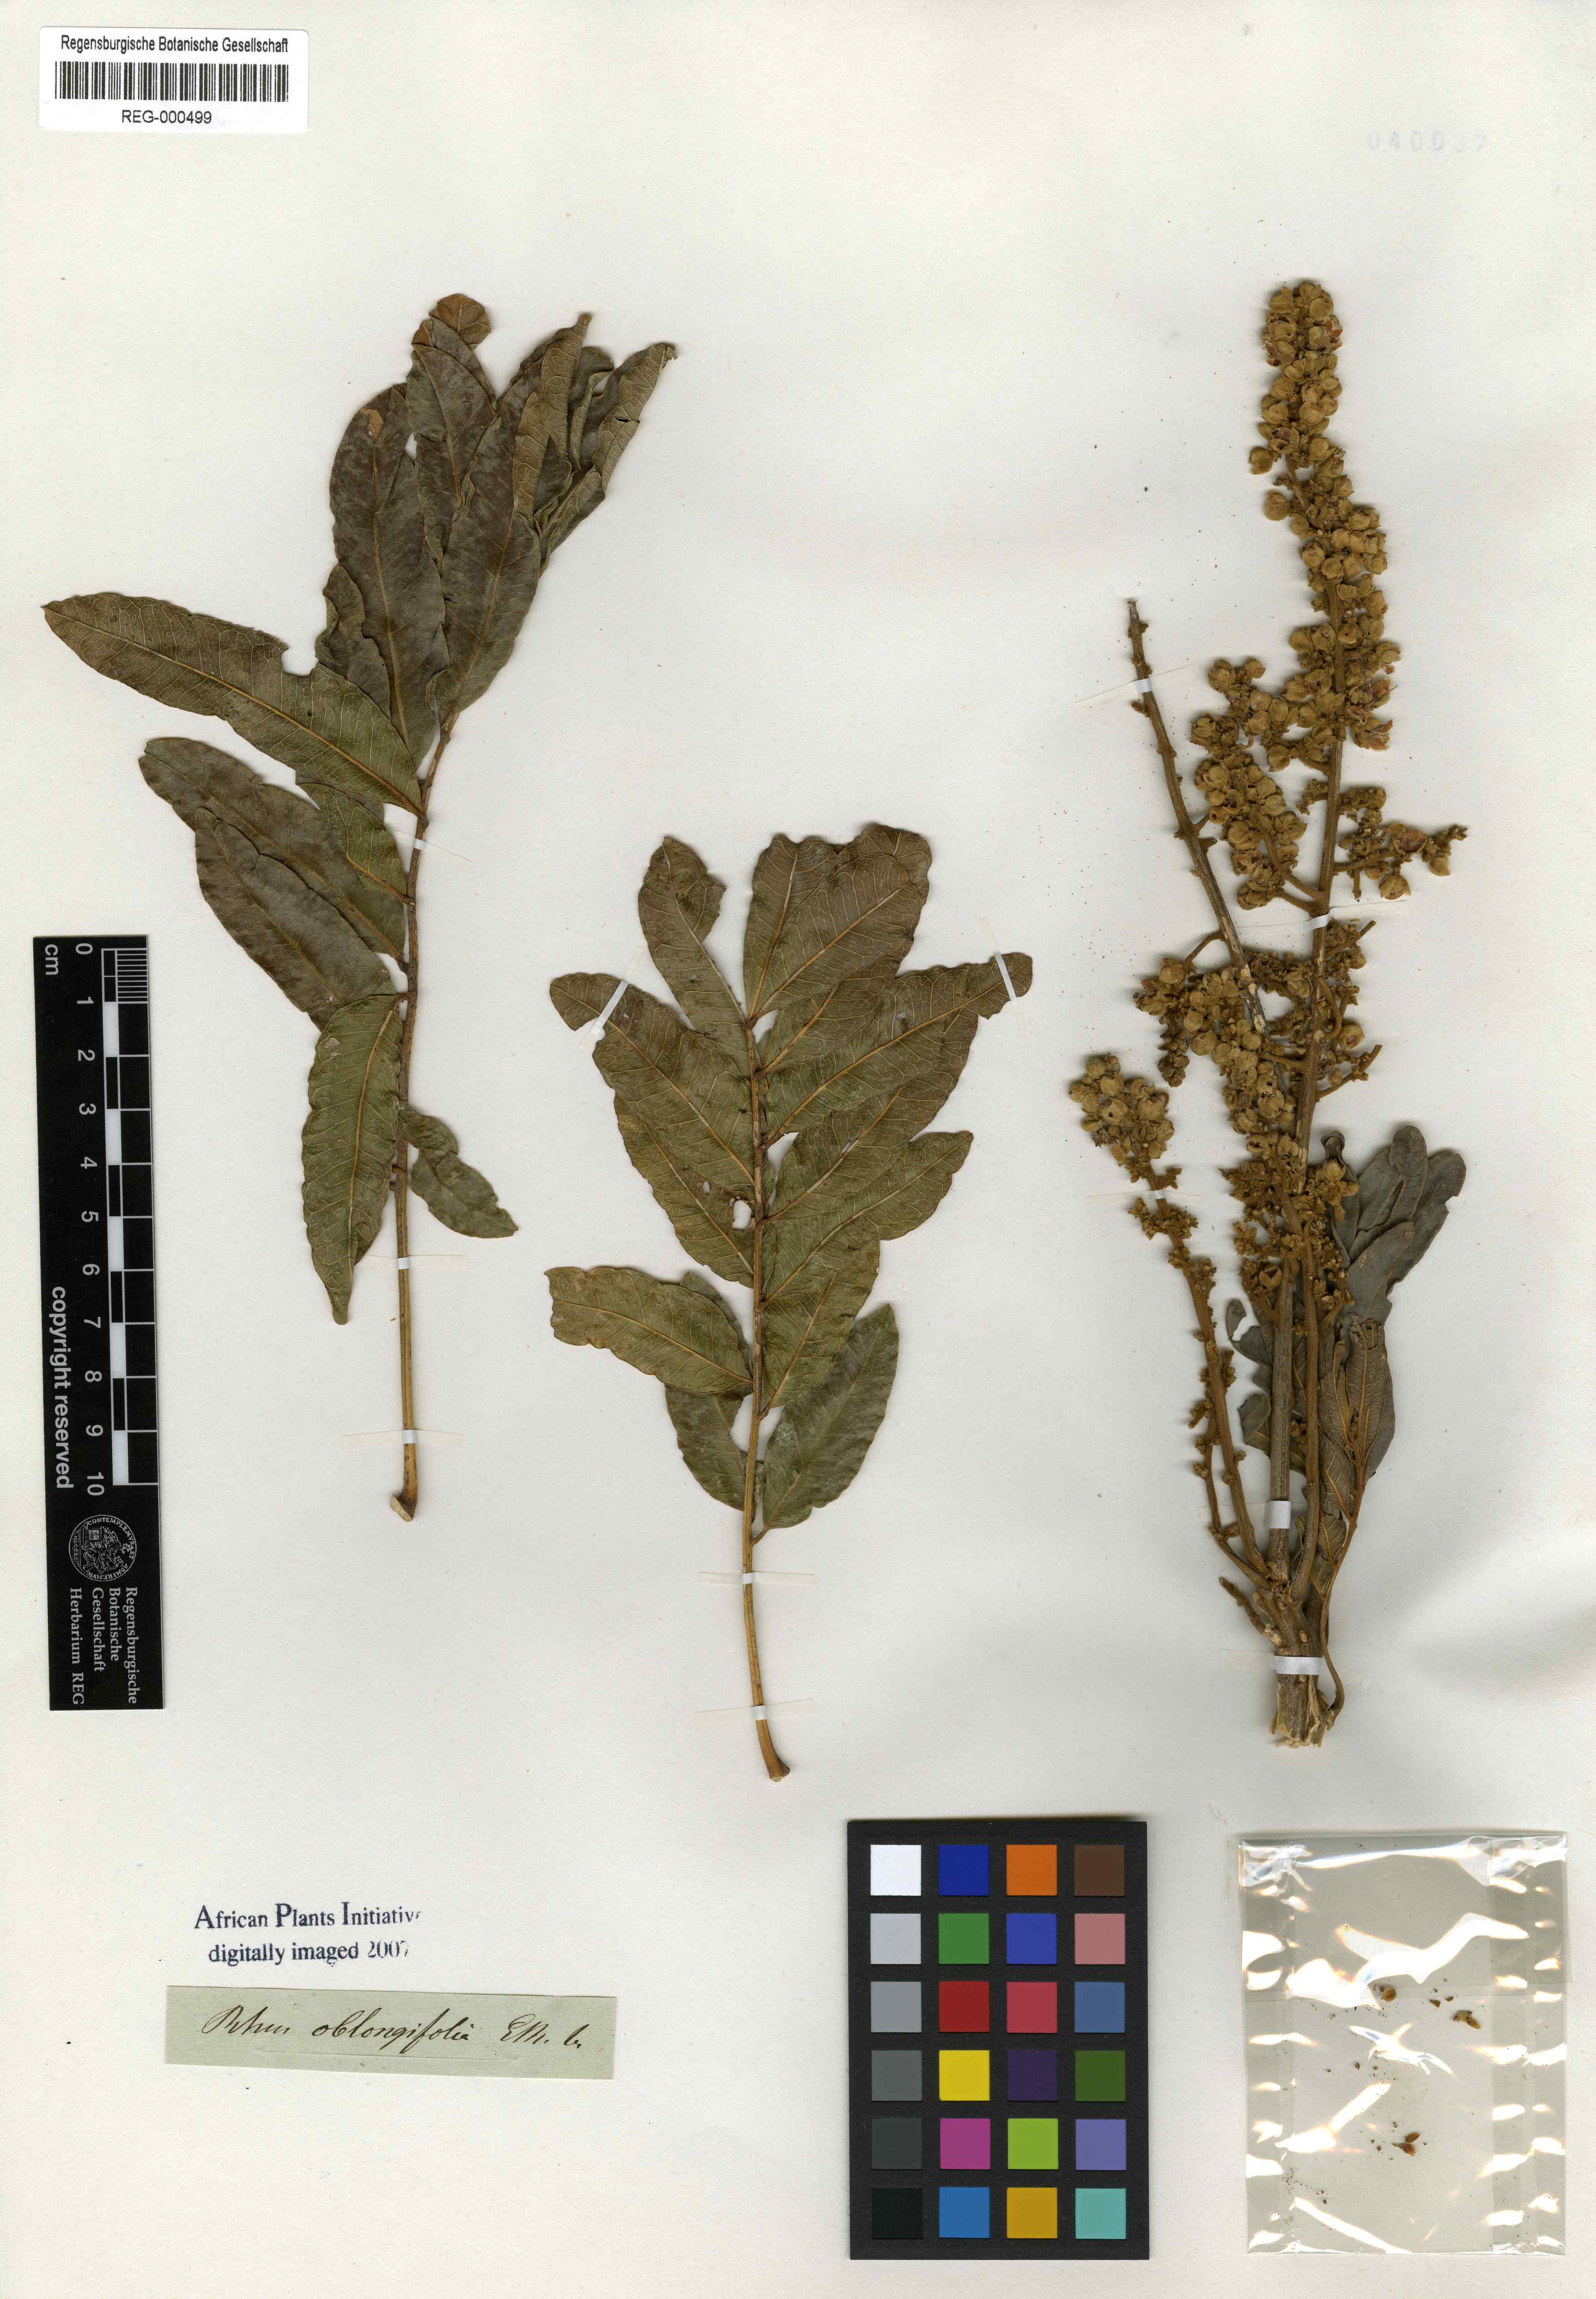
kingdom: Plantae
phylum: Tracheophyta
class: Magnoliopsida
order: Sapindales
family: Sapindaceae
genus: Deinbollia
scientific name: Deinbollia oblongifolia
